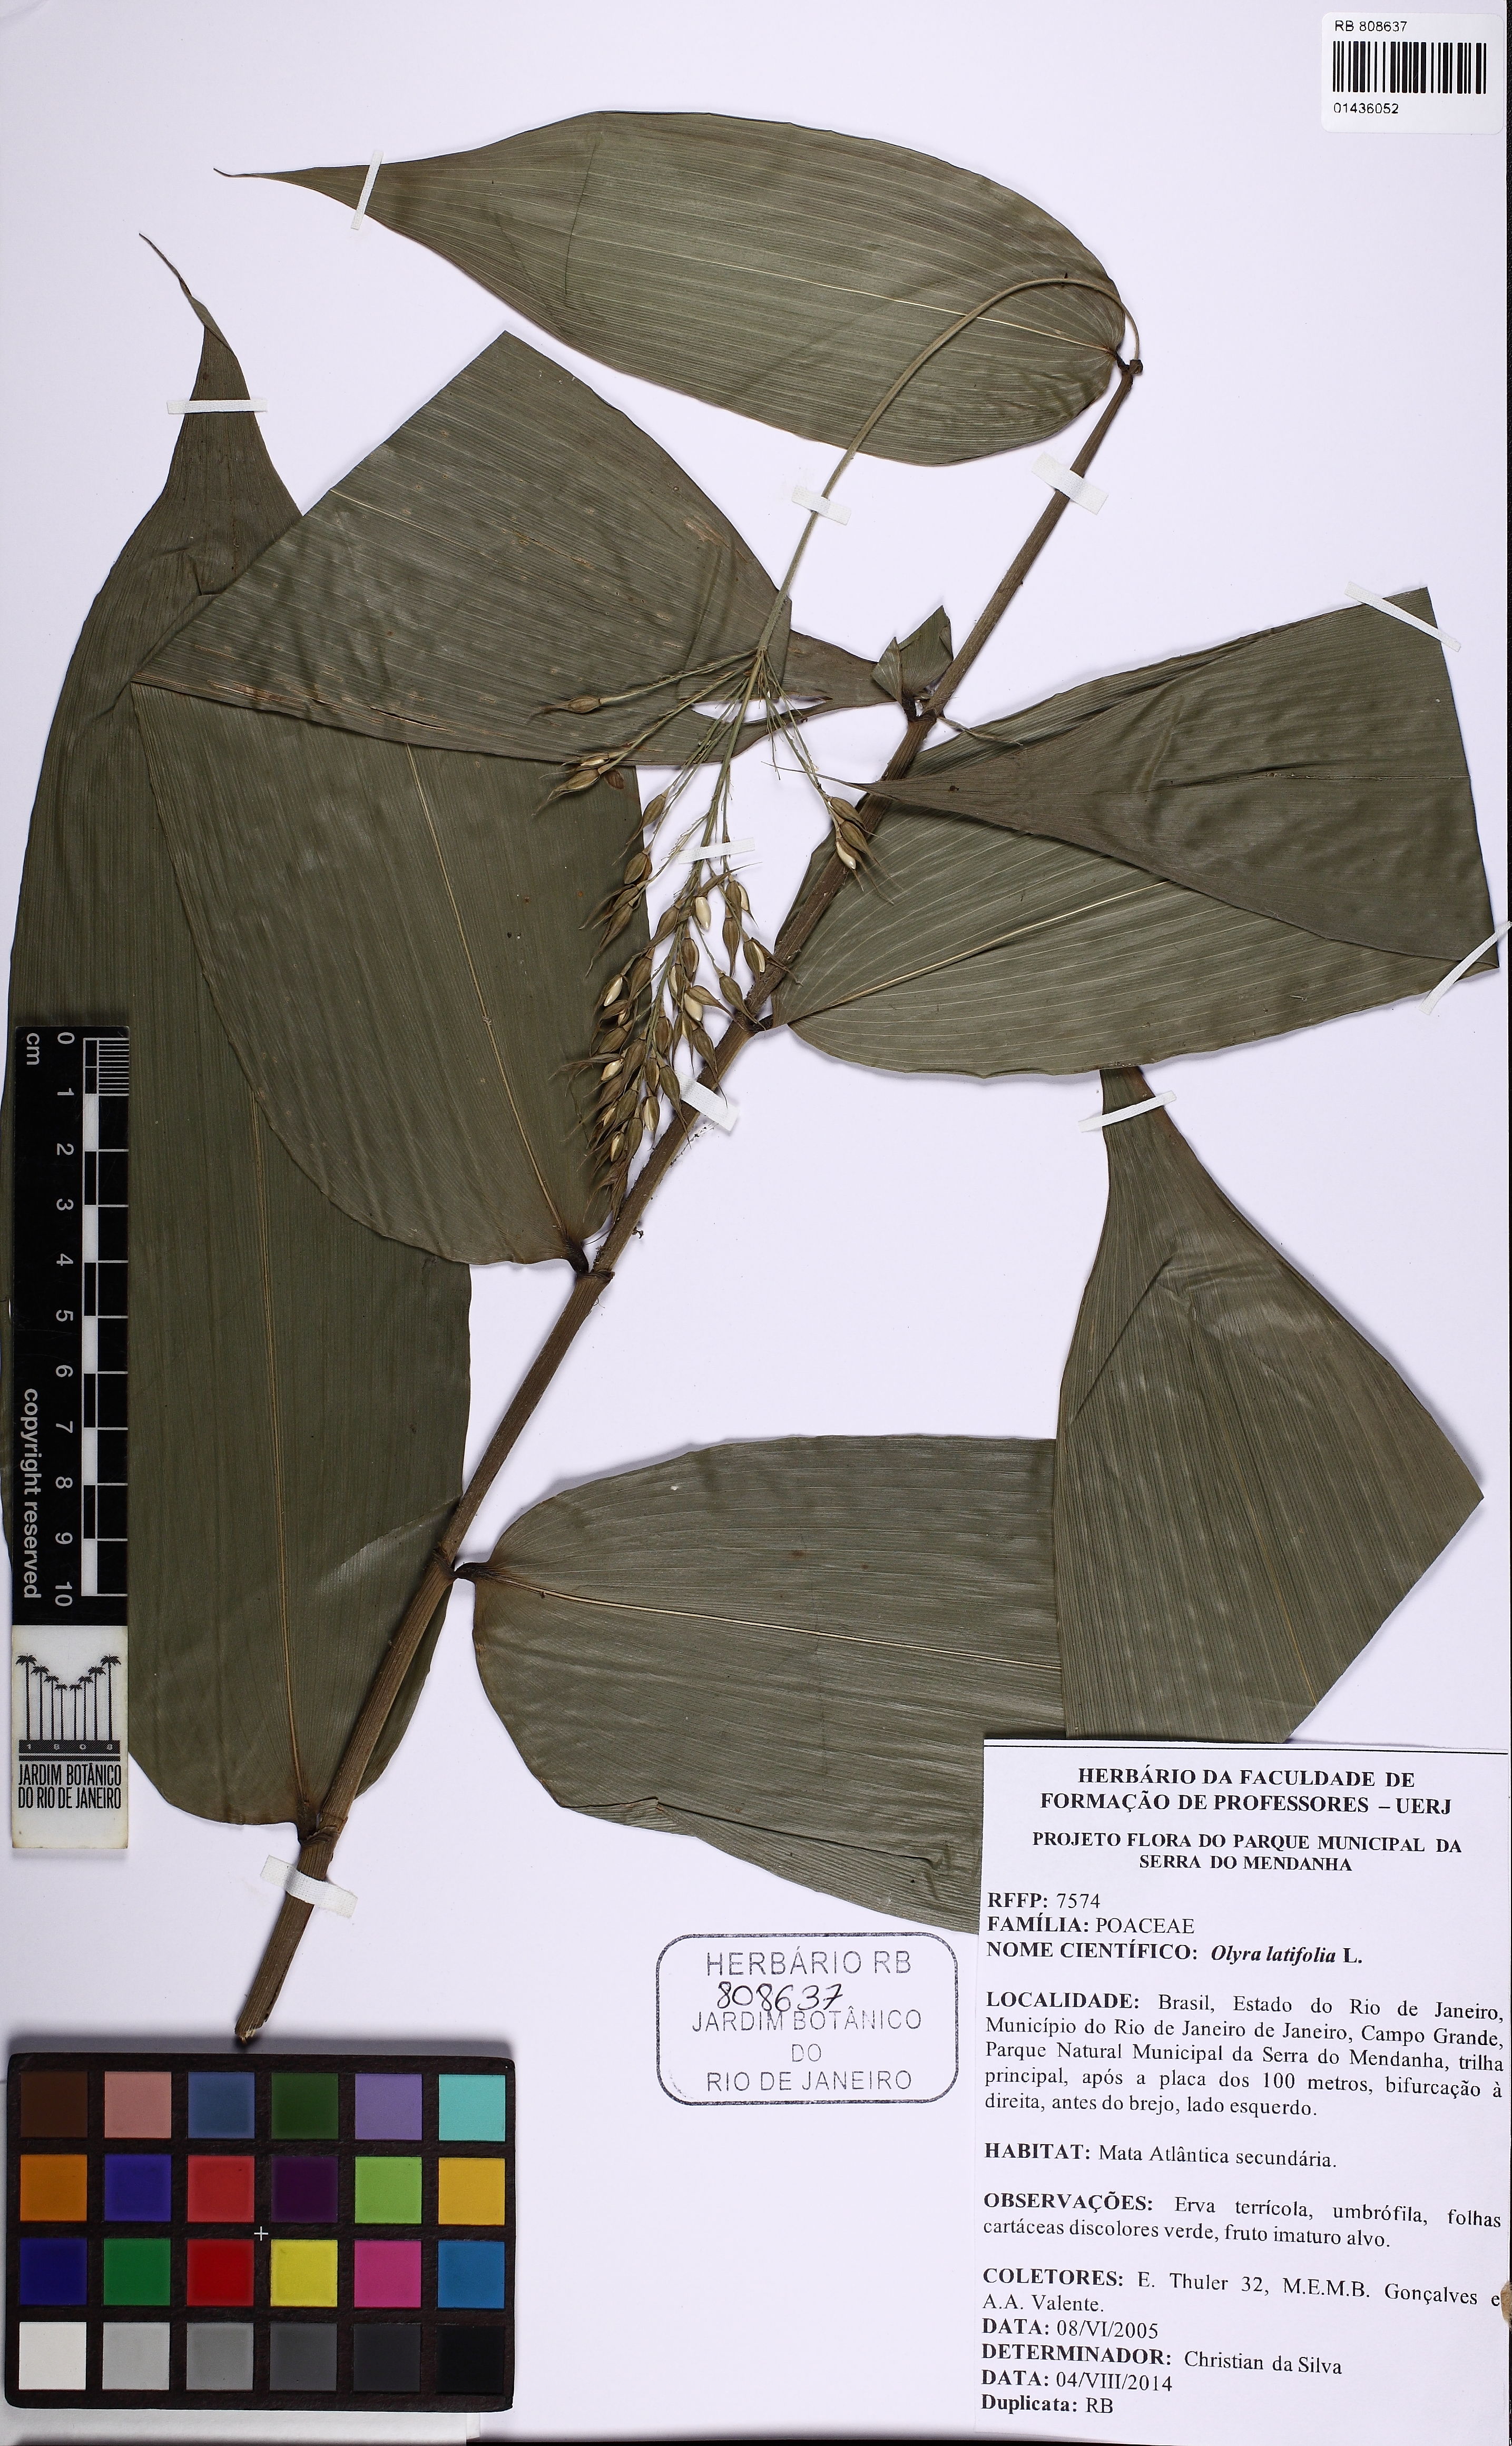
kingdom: Plantae
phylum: Tracheophyta
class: Liliopsida
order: Poales
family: Poaceae
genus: Olyra
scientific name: Olyra latifolia
